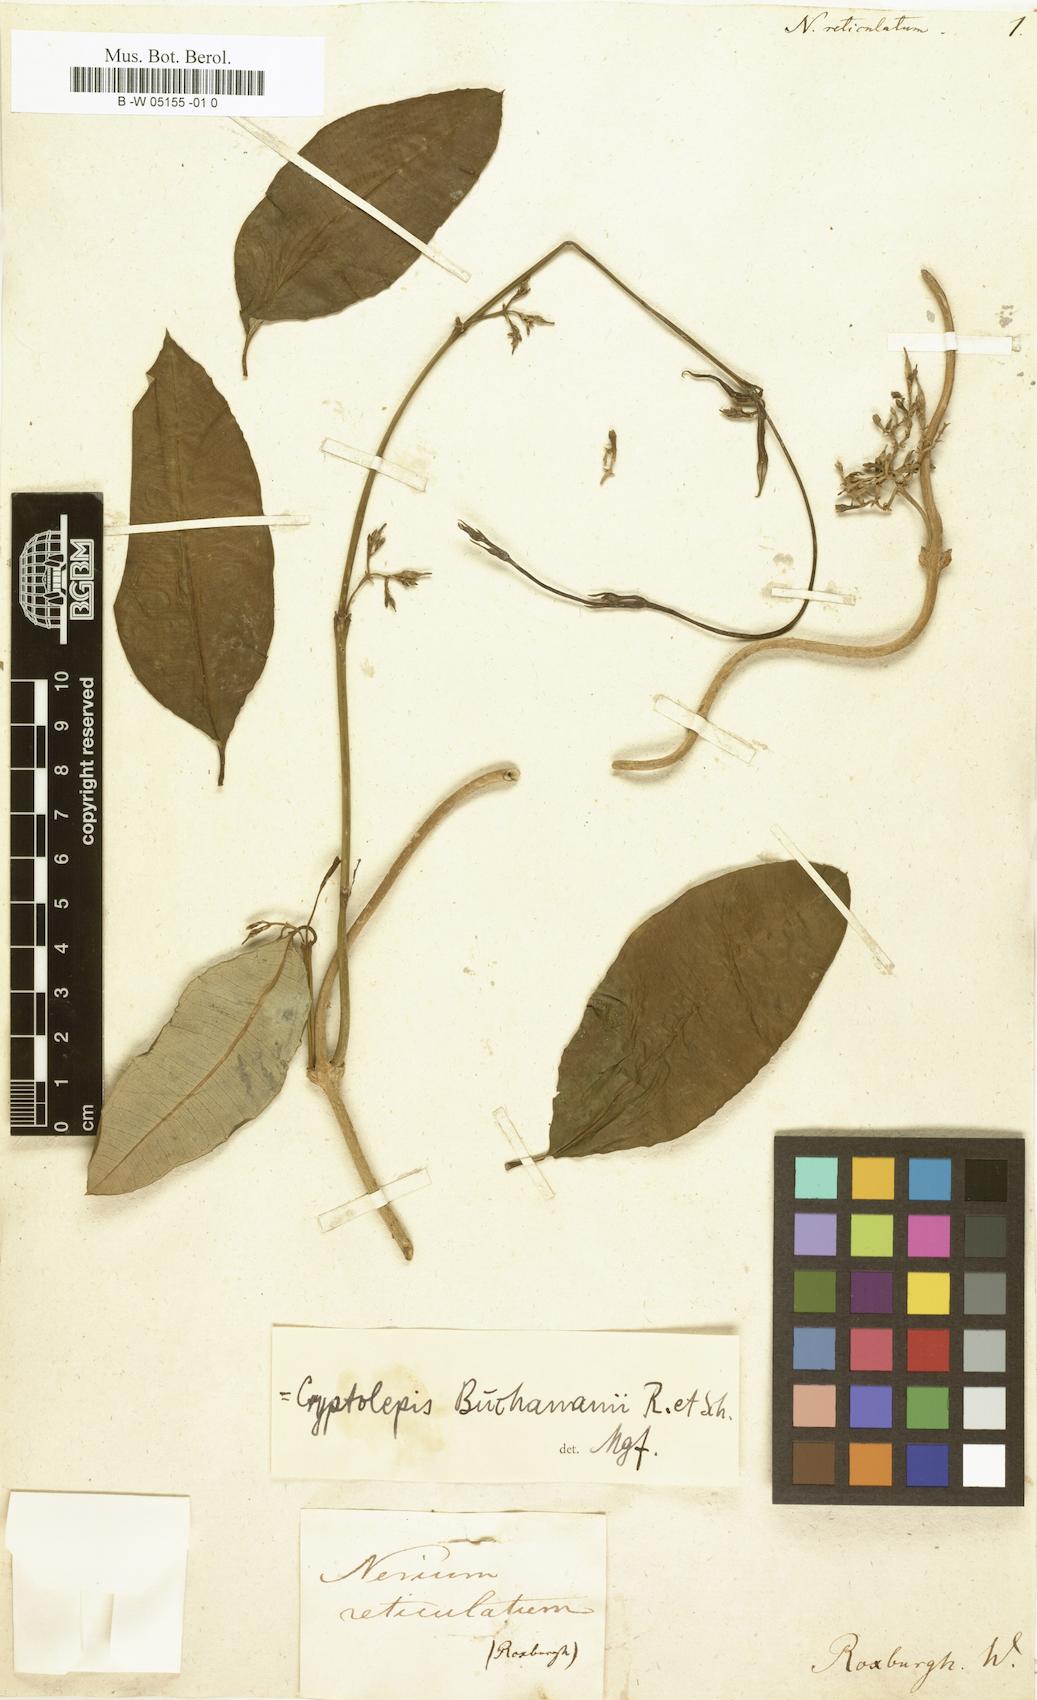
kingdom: Plantae
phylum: Tracheophyta
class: Magnoliopsida
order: Gentianales
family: Apocynaceae
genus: Cryptolepis
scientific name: Cryptolepis buchananii
